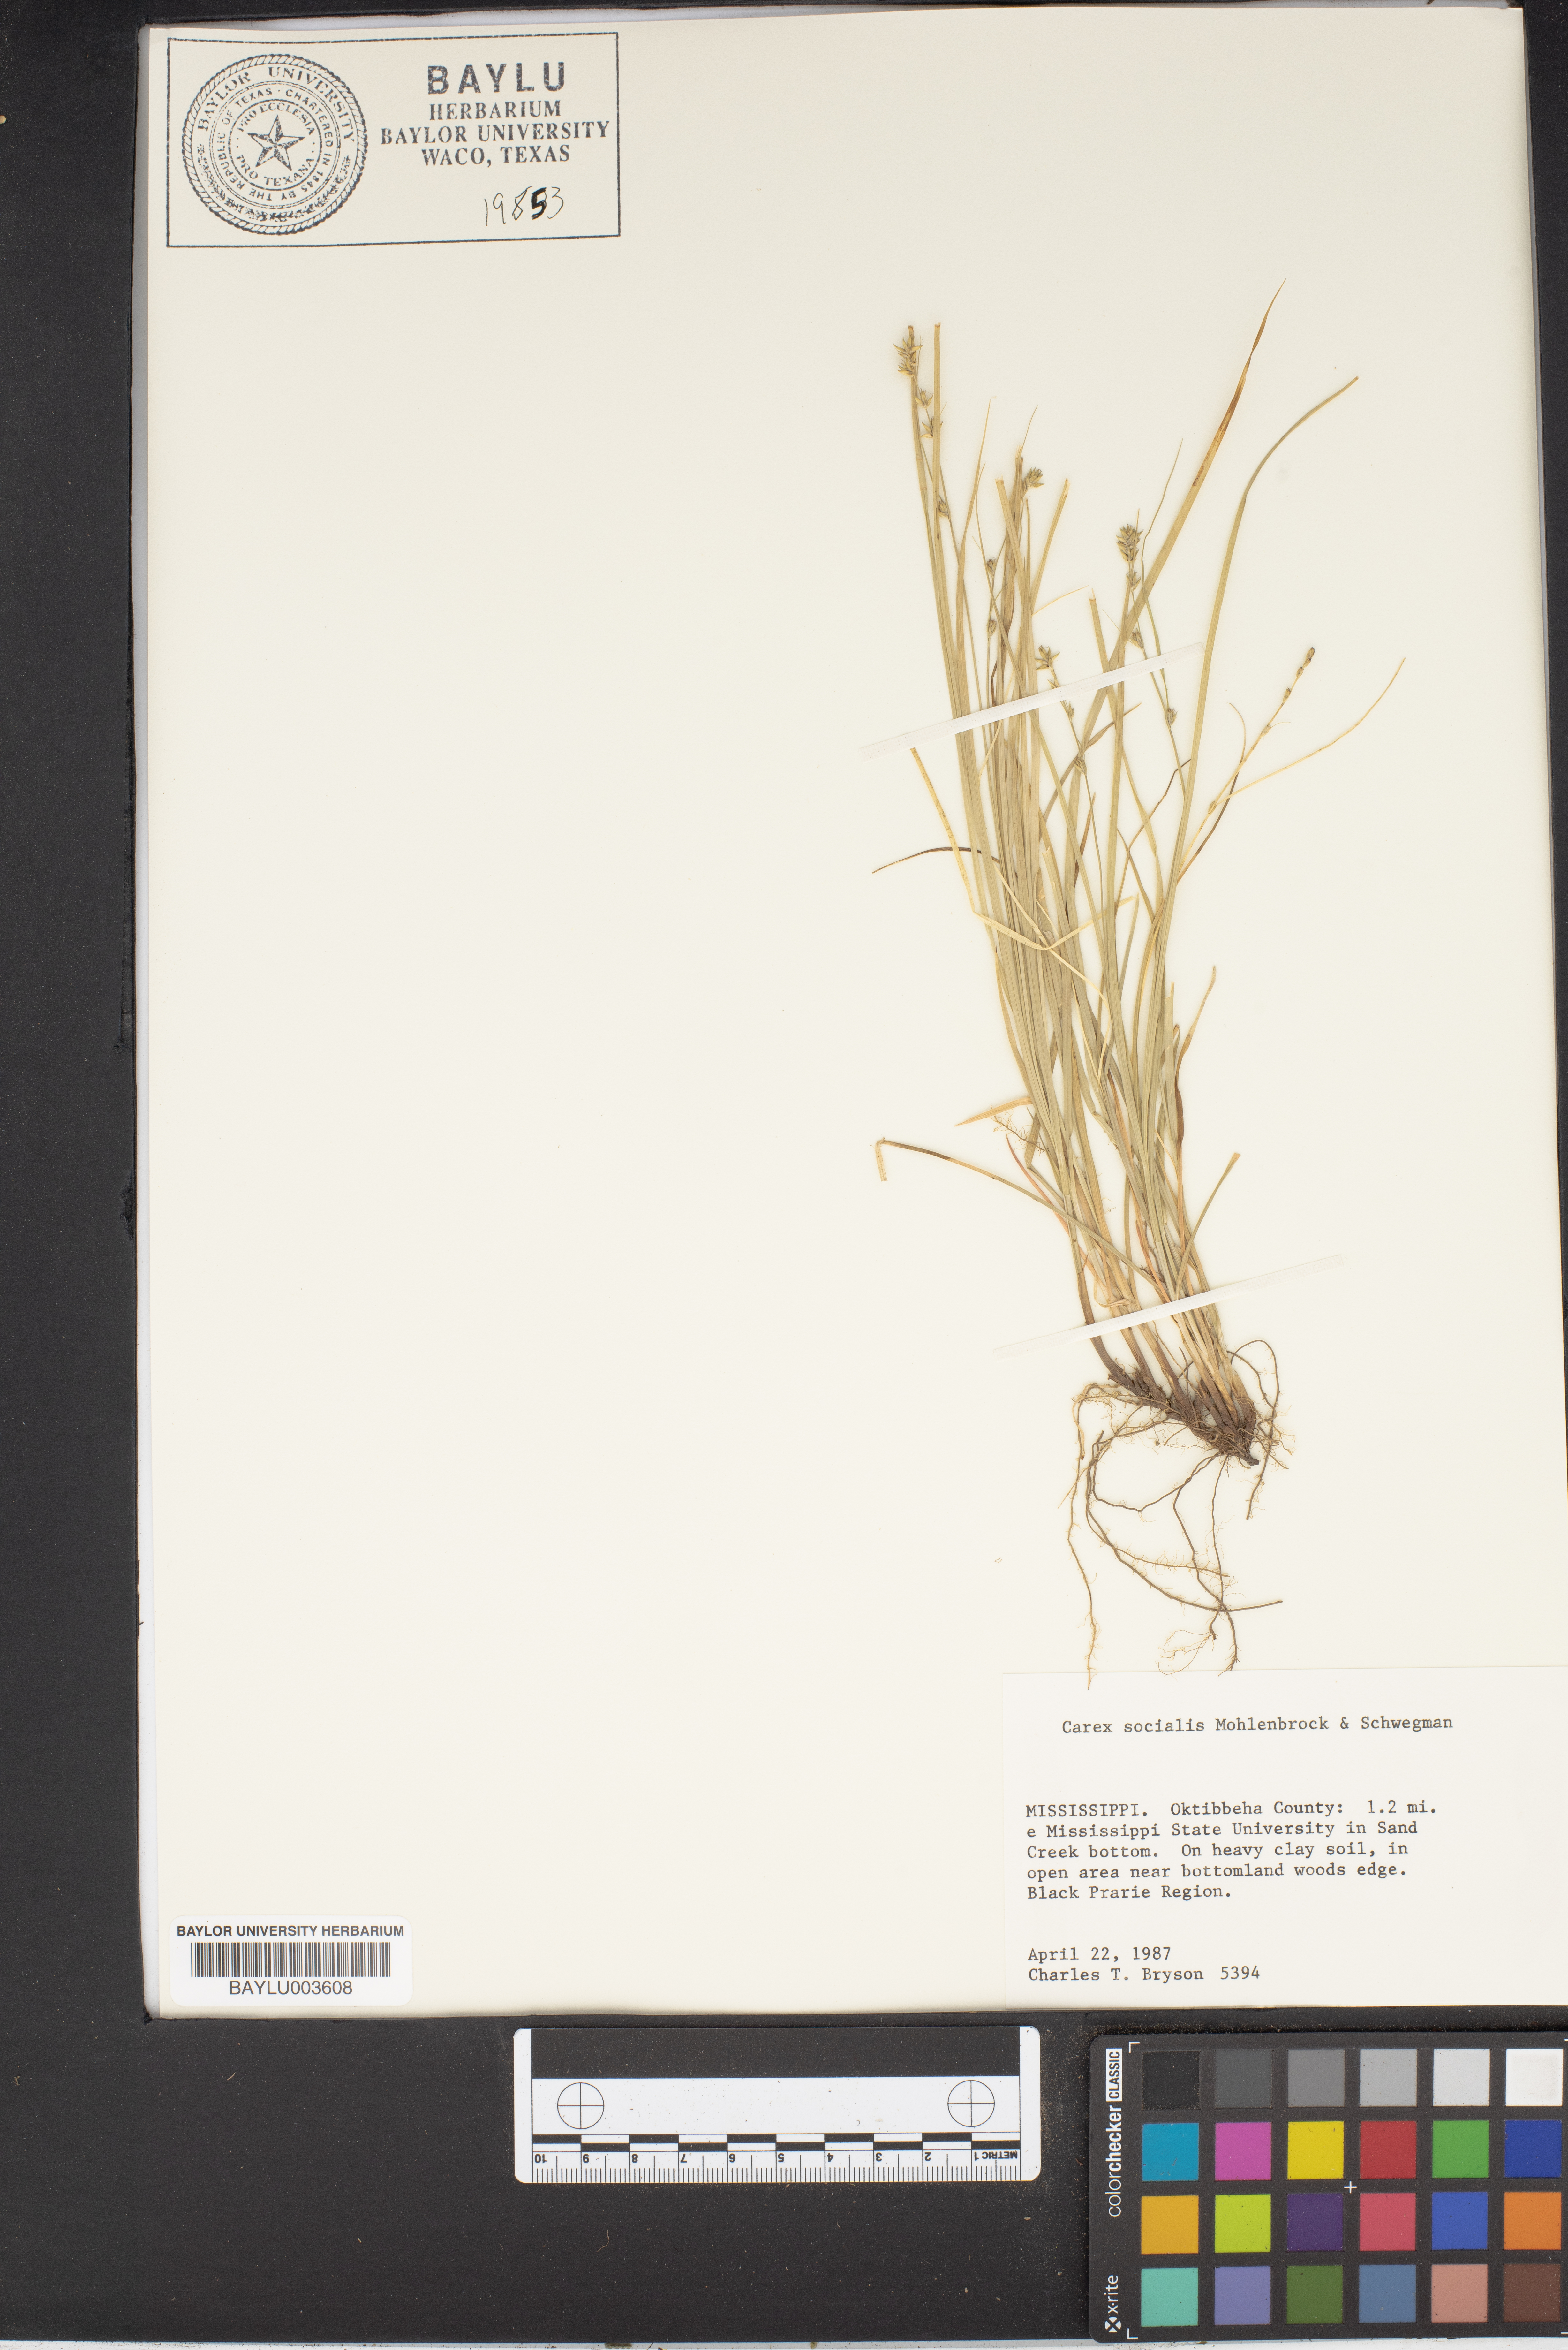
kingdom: Plantae
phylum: Tracheophyta
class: Liliopsida
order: Poales
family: Cyperaceae
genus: Carex
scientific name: Carex socialis
